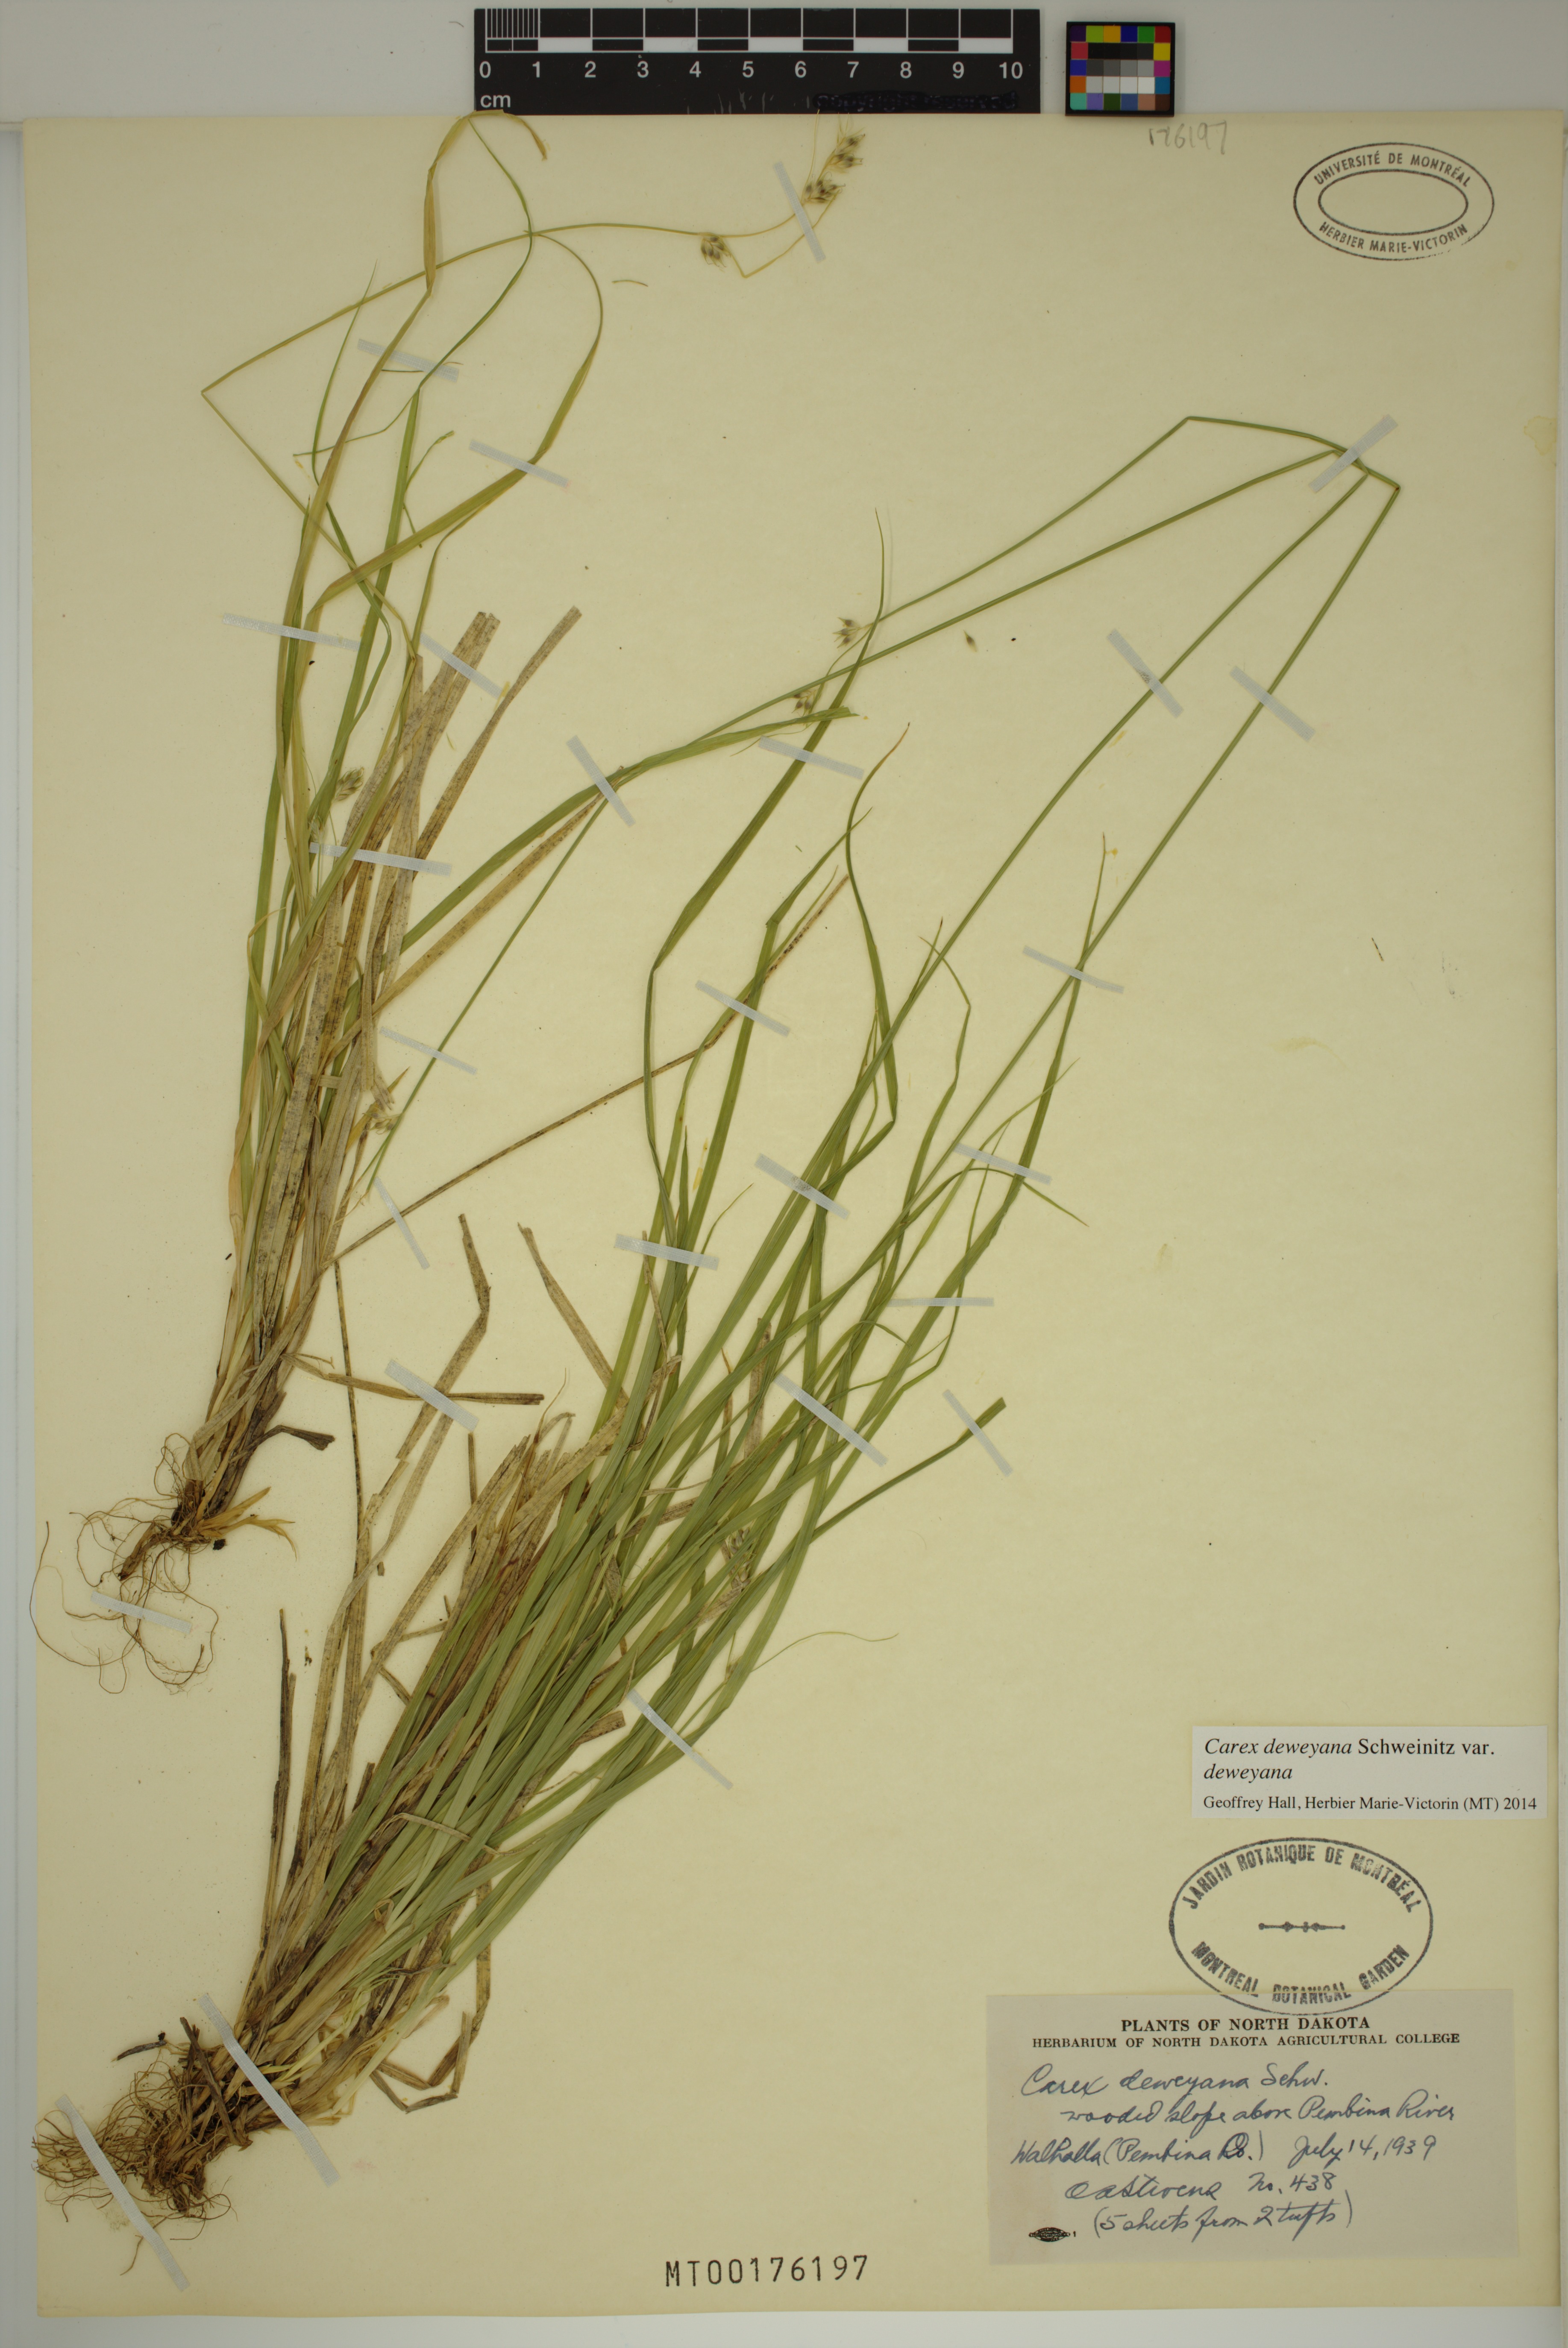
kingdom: Plantae
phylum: Tracheophyta
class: Liliopsida
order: Poales
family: Cyperaceae
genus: Carex
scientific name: Carex deweyana
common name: Dewey's sedge
